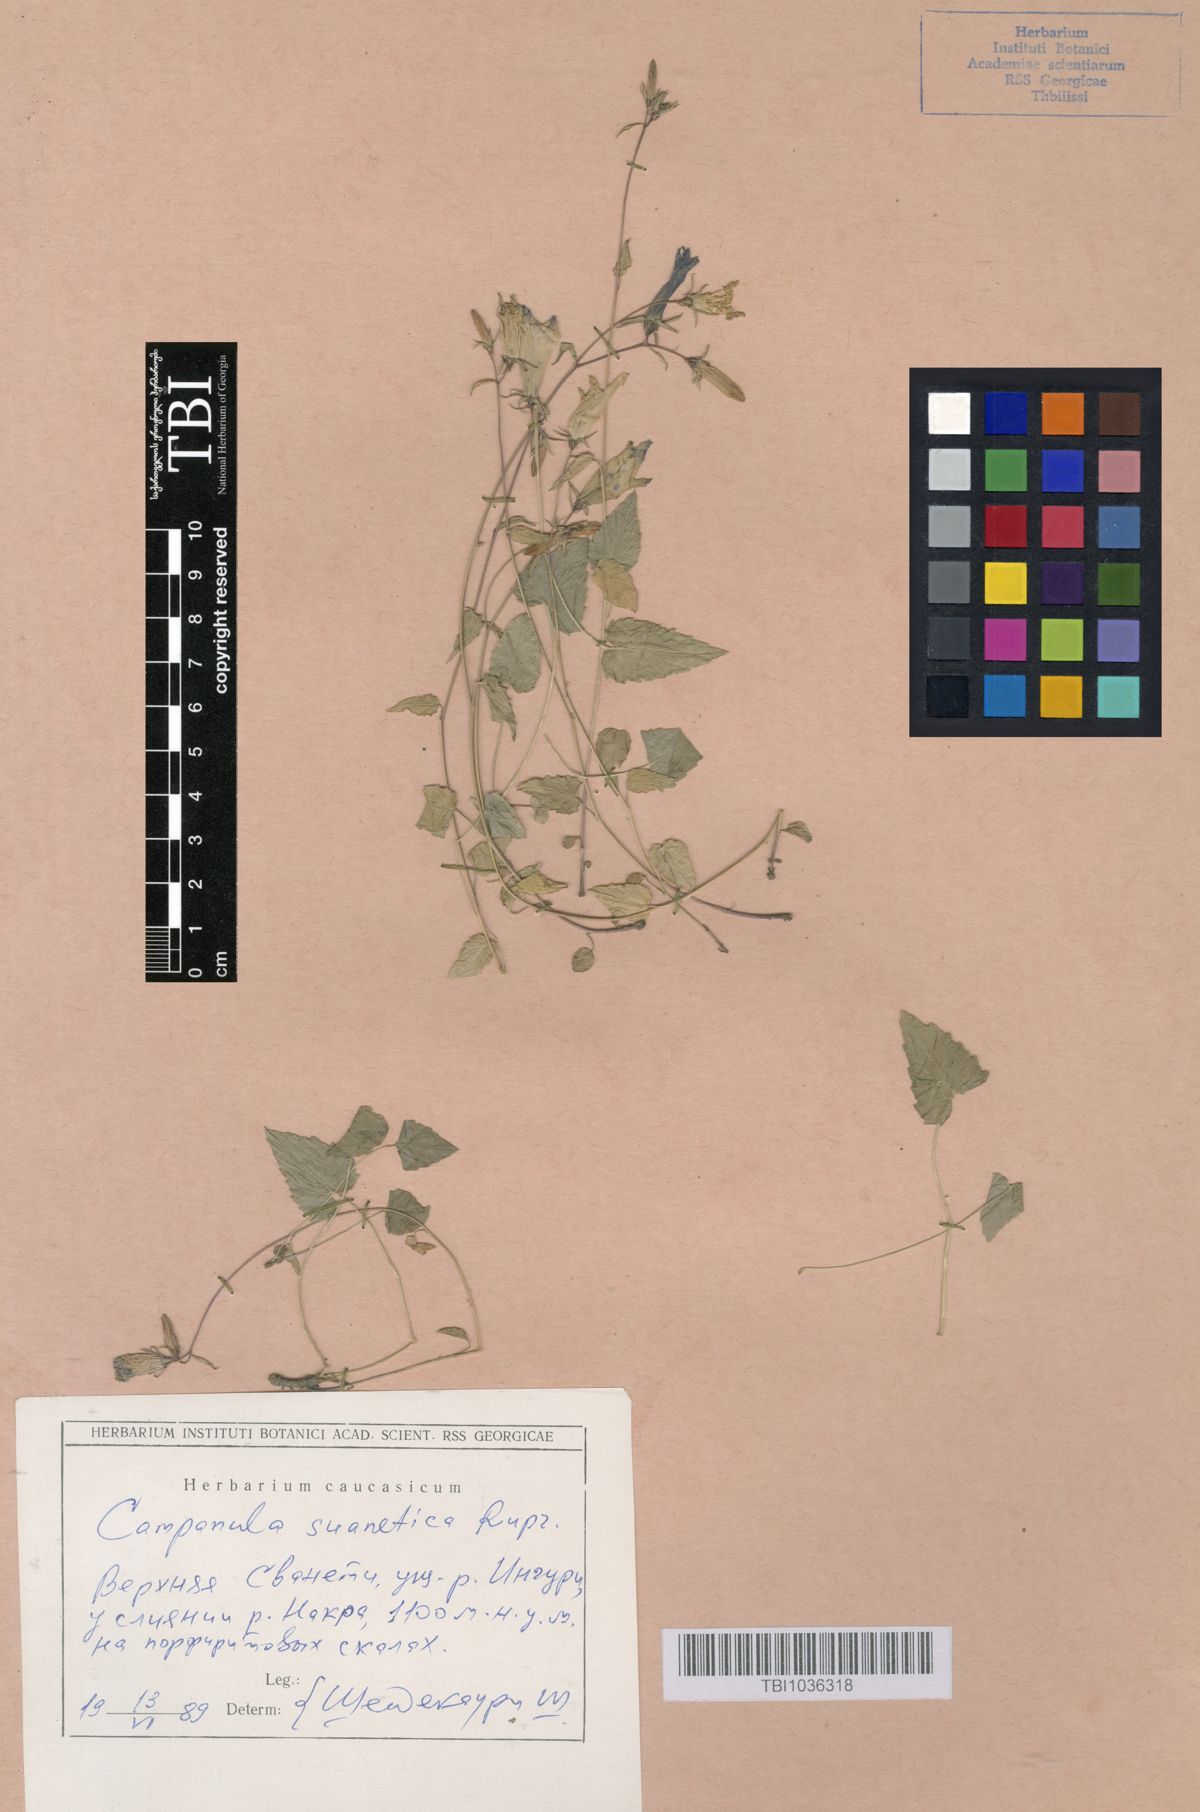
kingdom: Plantae
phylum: Tracheophyta
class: Magnoliopsida
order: Asterales
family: Campanulaceae
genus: Campanula
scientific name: Campanula suanetica
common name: Svanetian bellflower
